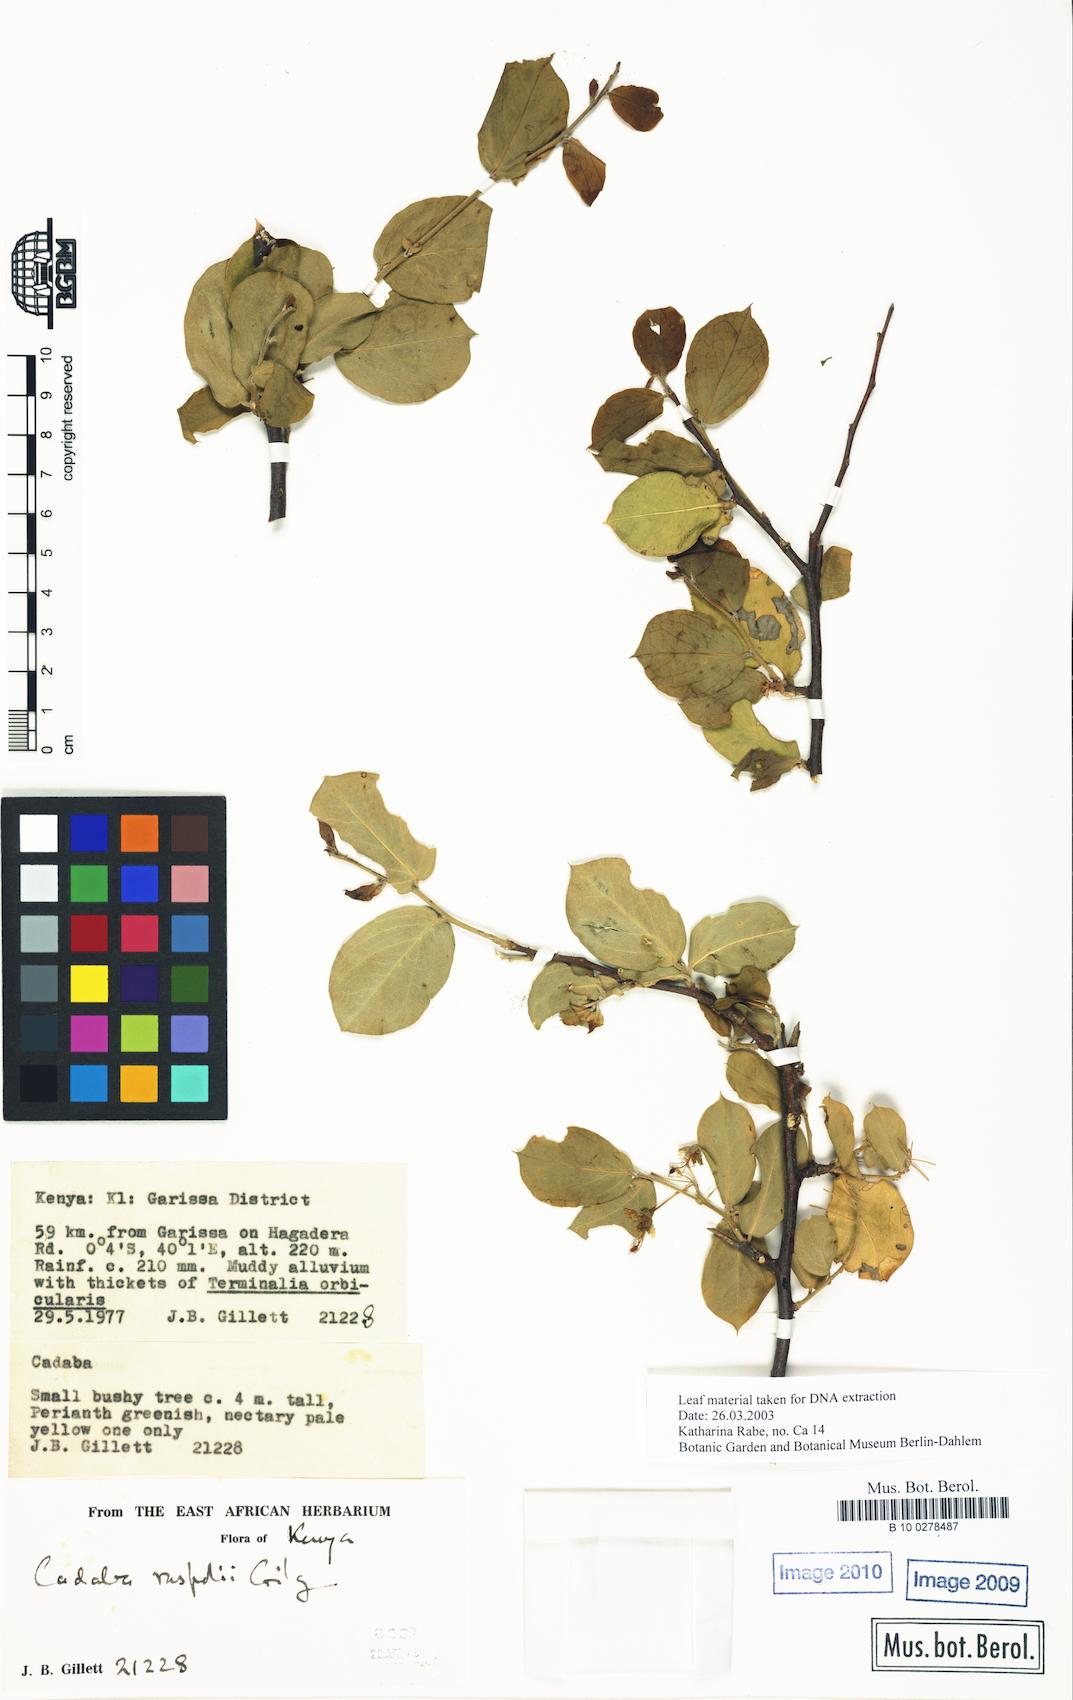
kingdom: Plantae
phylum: Tracheophyta
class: Magnoliopsida
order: Brassicales
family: Capparaceae
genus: Cadaba
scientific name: Cadaba ruspolii
